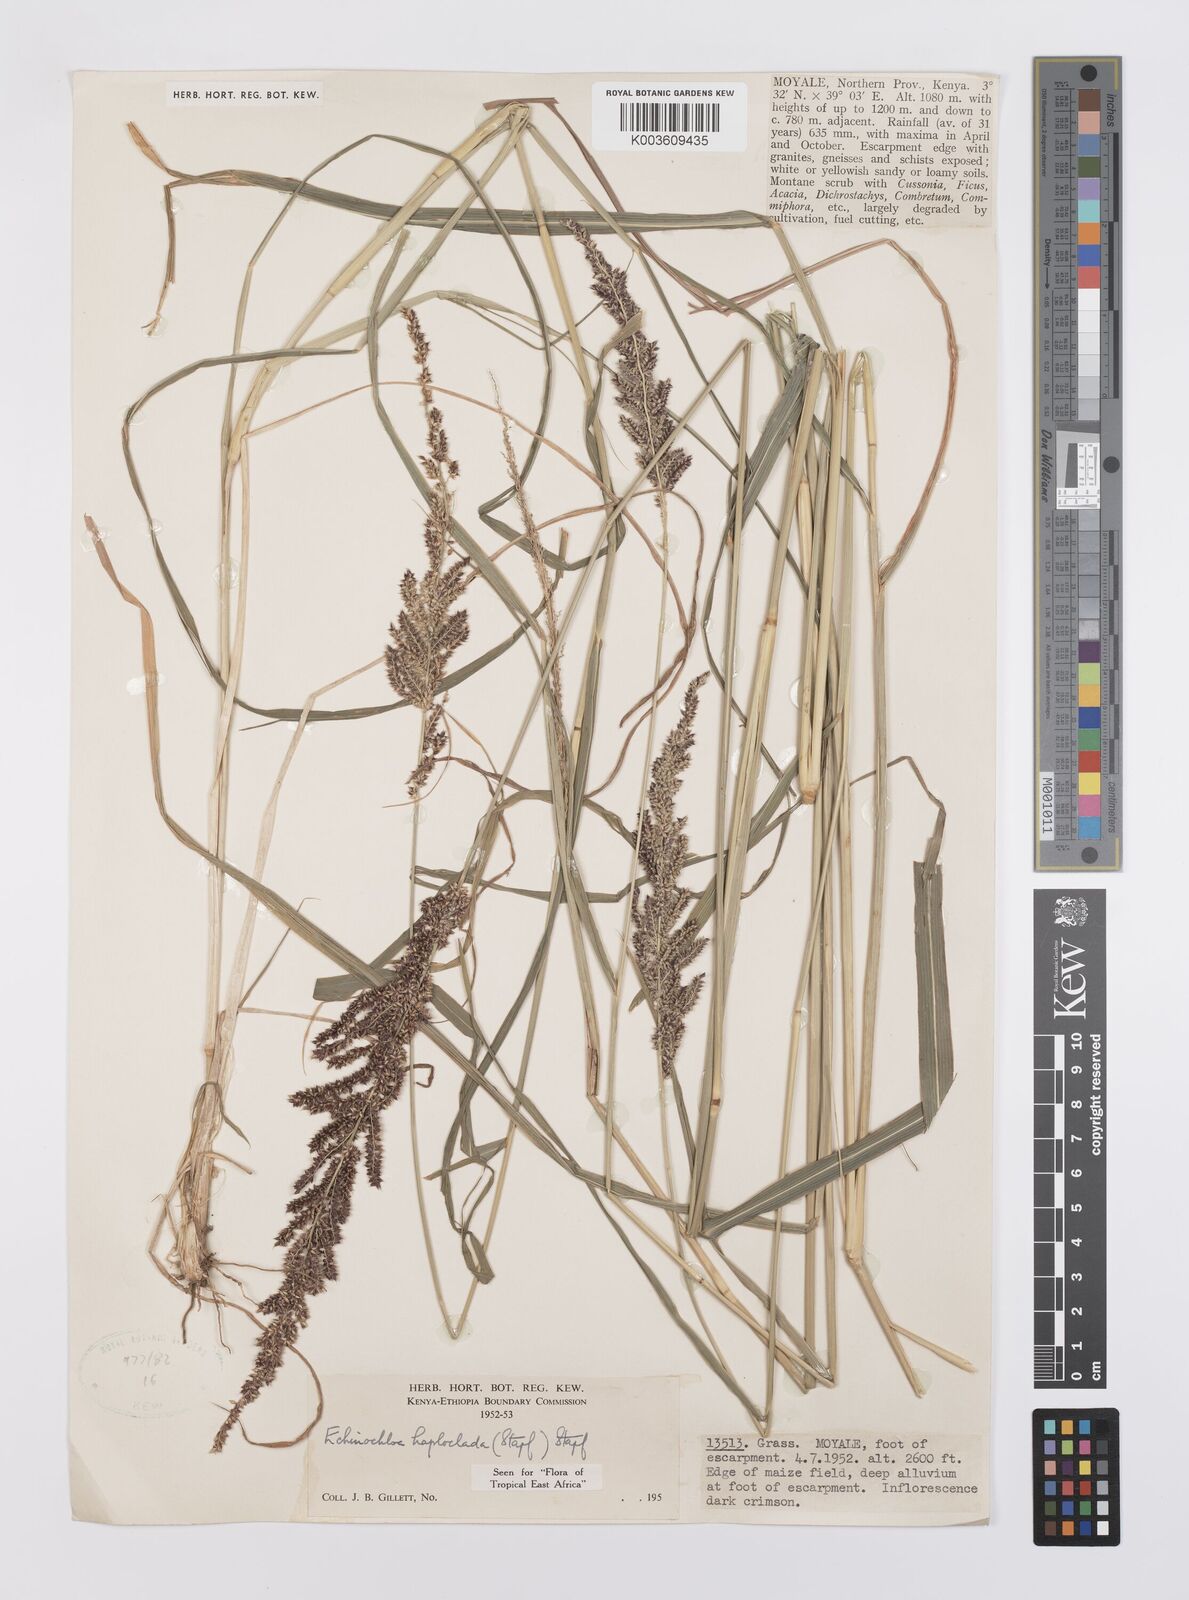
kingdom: Plantae
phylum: Tracheophyta
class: Liliopsida
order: Poales
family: Poaceae
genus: Echinochloa
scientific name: Echinochloa haploclada
